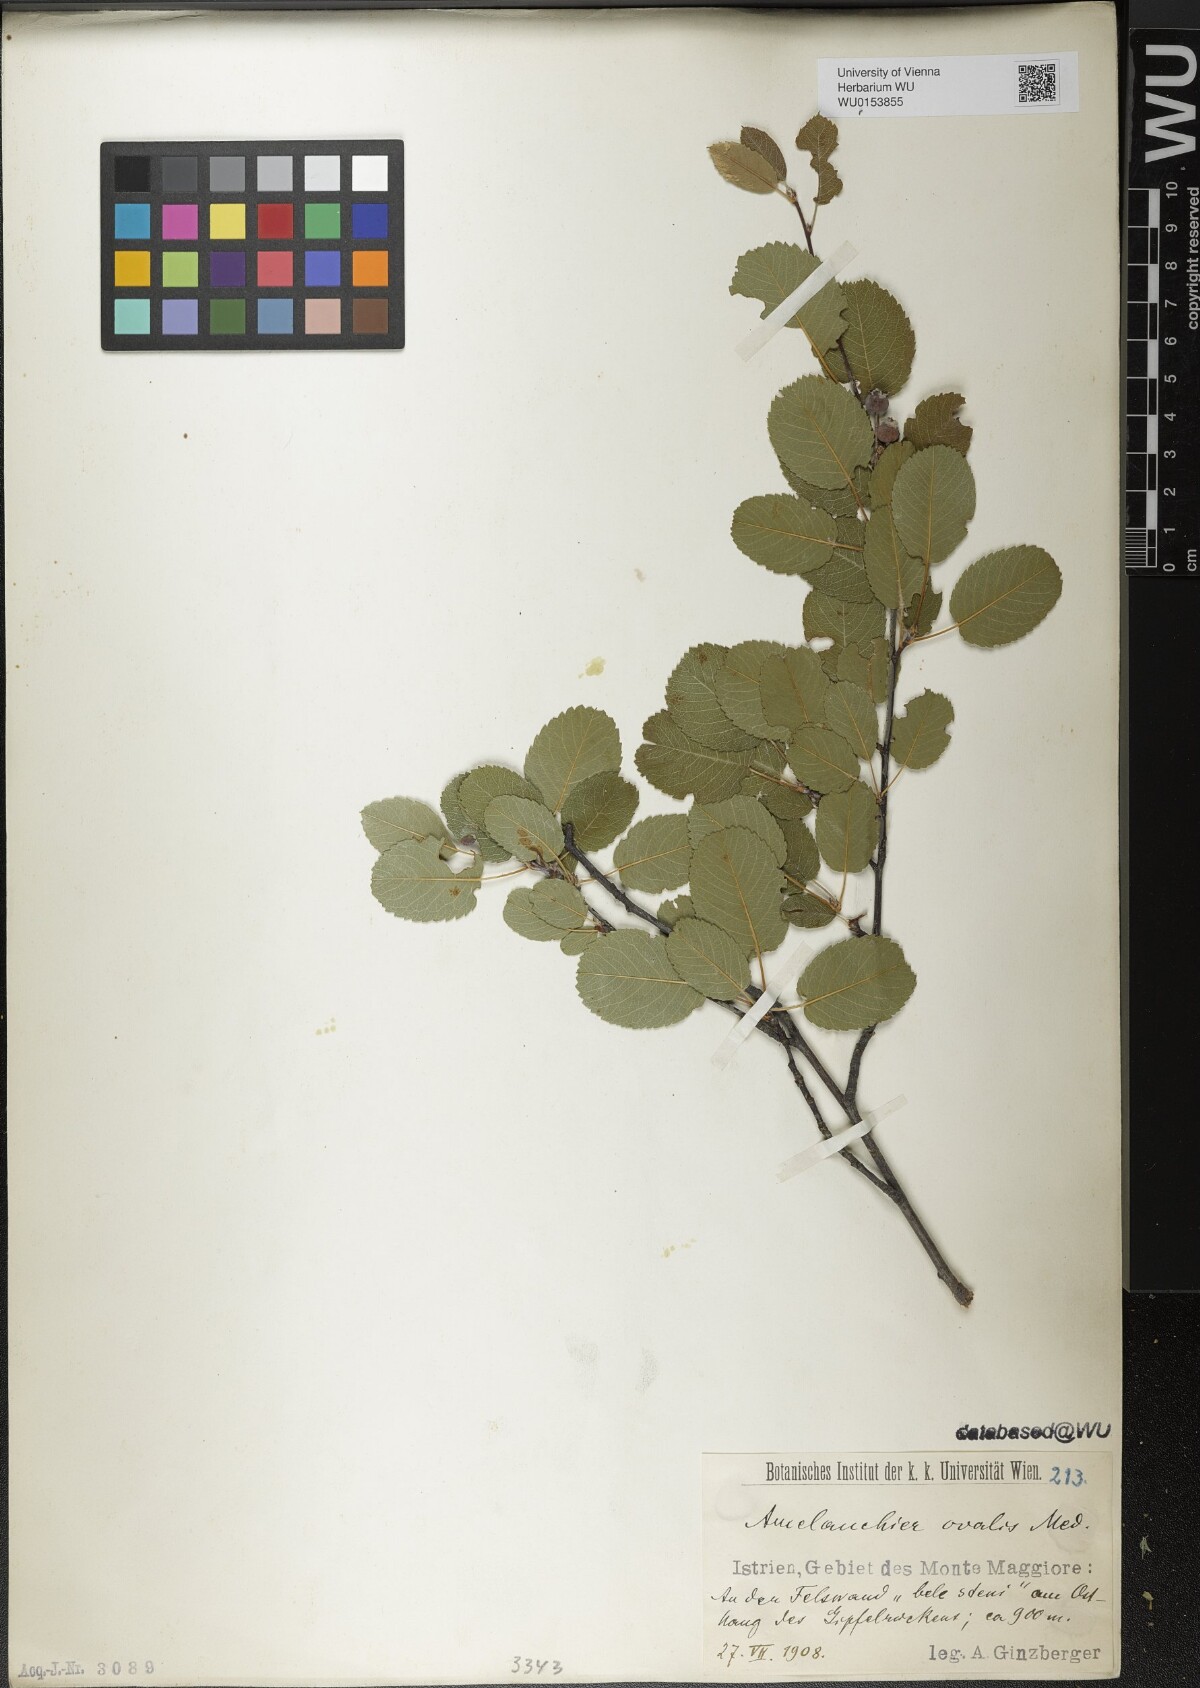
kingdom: Plantae
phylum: Tracheophyta
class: Magnoliopsida
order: Rosales
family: Rosaceae
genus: Amelanchier
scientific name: Amelanchier ovalis
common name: Serviceberry
